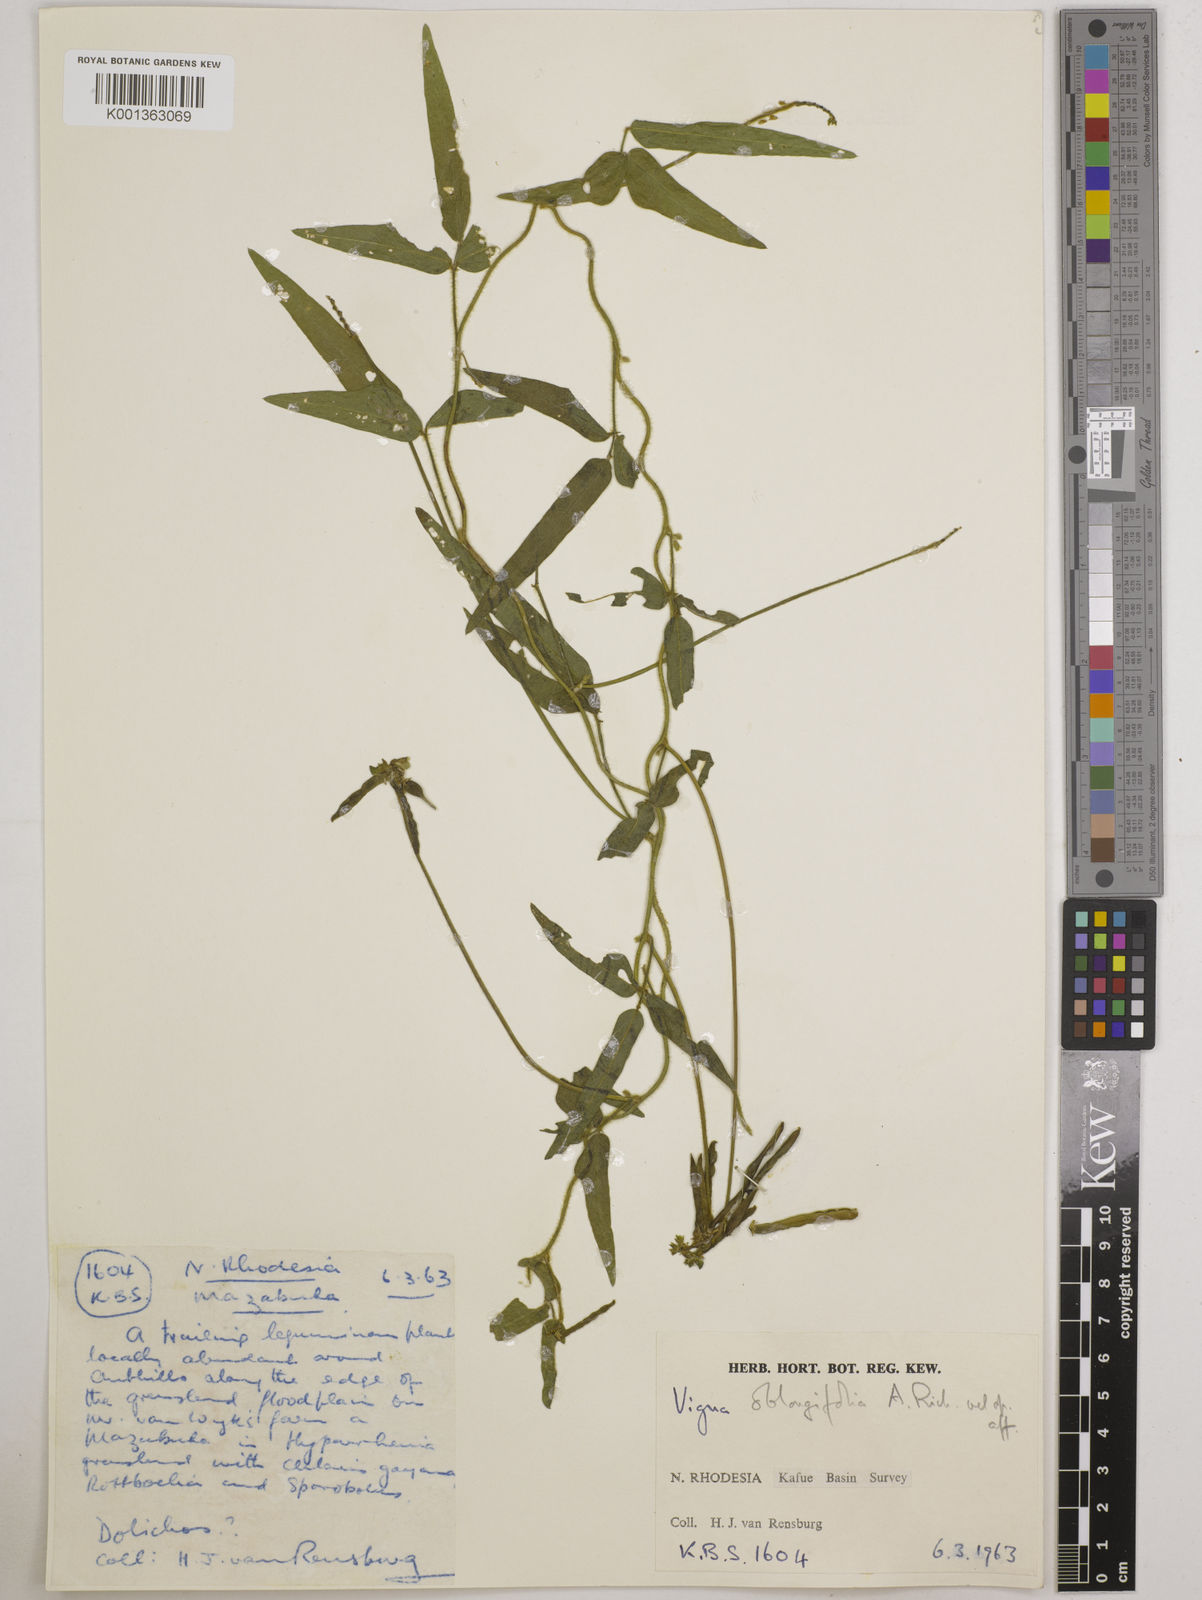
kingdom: Plantae
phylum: Tracheophyta
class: Magnoliopsida
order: Fabales
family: Fabaceae
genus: Vigna
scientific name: Vigna
